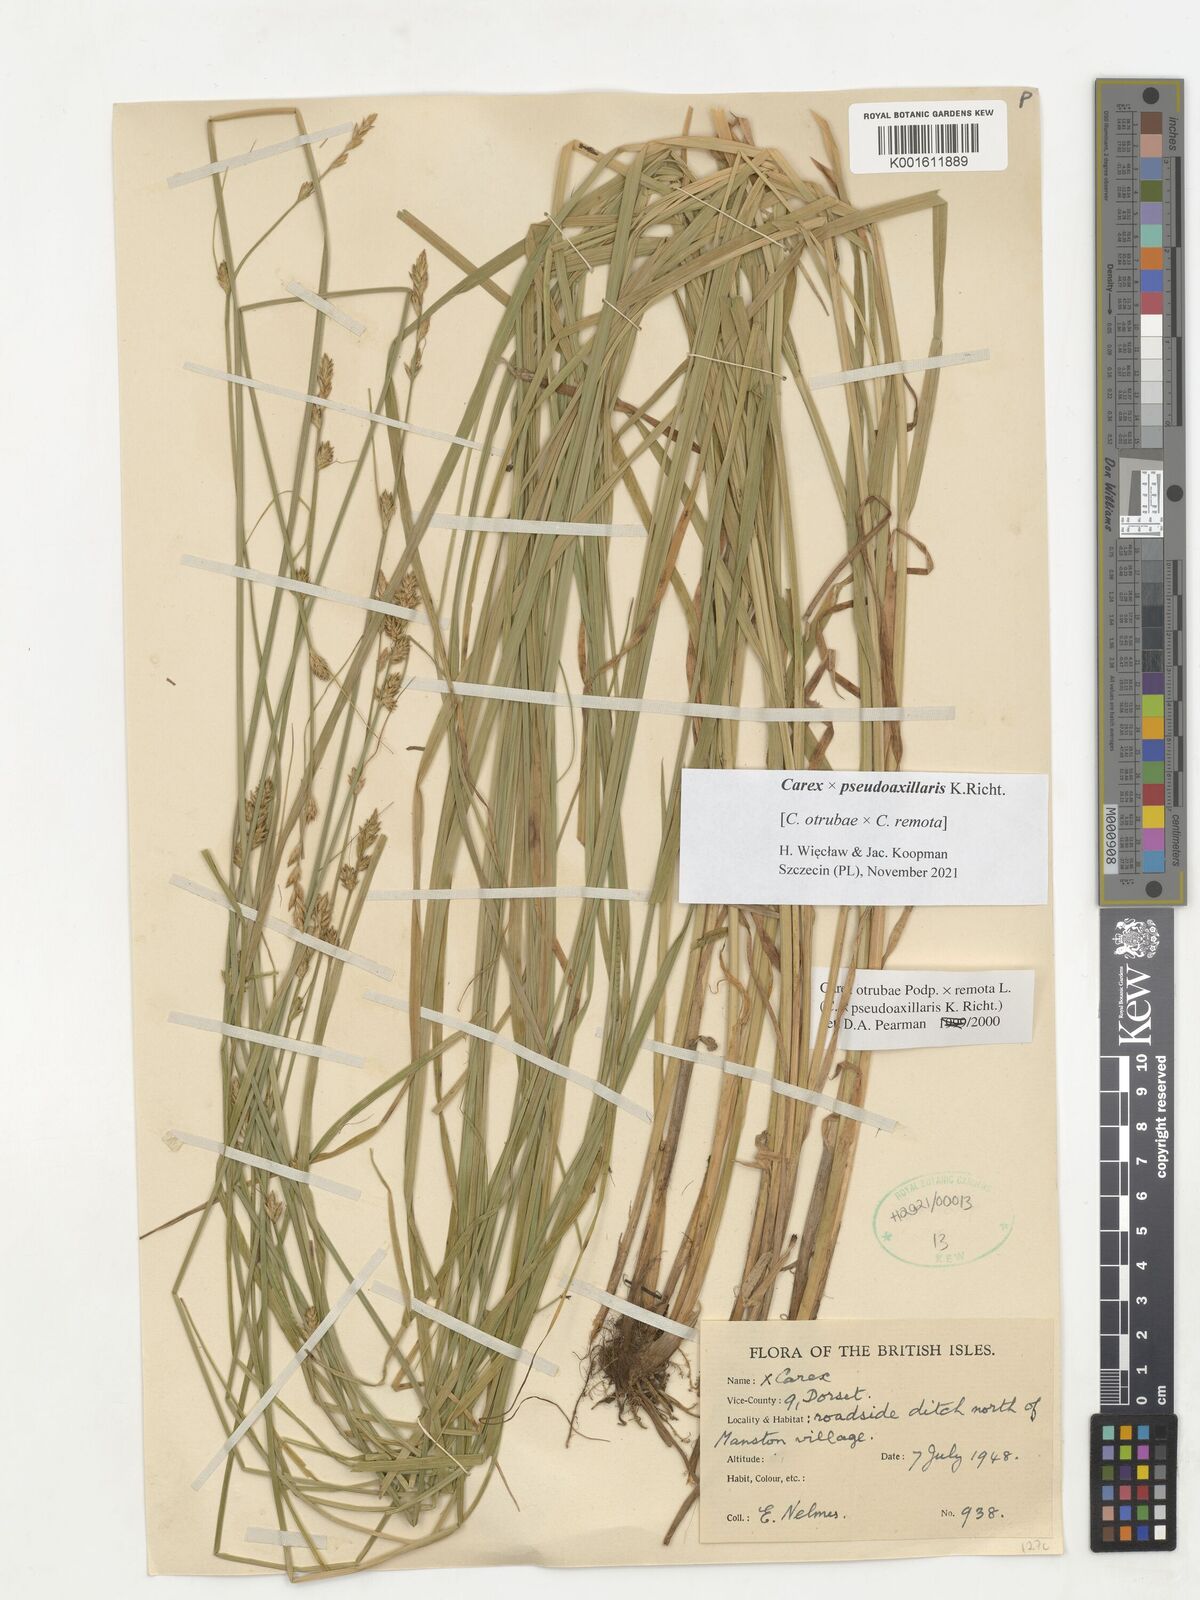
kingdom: Plantae
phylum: Tracheophyta
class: Liliopsida
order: Poales
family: Cyperaceae
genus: Carex
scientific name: Carex pseudoaxillaris
